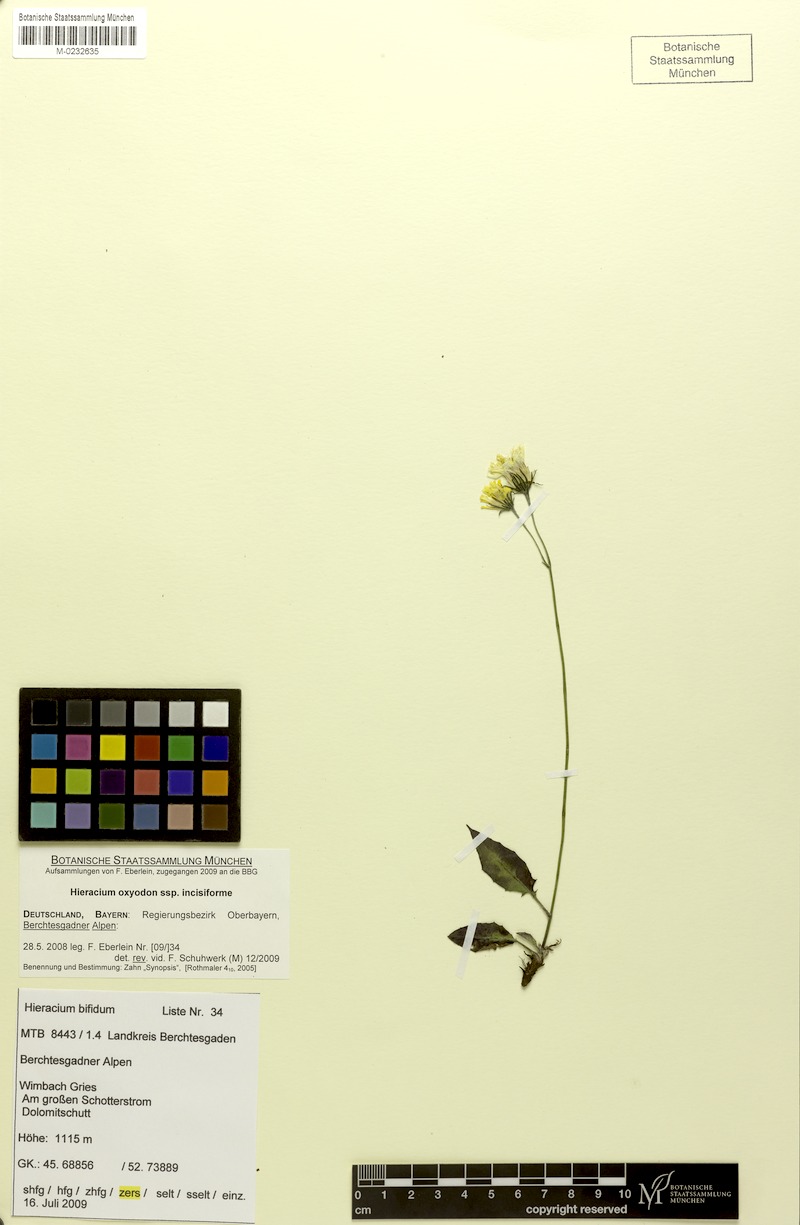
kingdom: Plantae
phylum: Tracheophyta
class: Magnoliopsida
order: Asterales
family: Asteraceae
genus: Hieracium
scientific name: Hieracium valoddae
